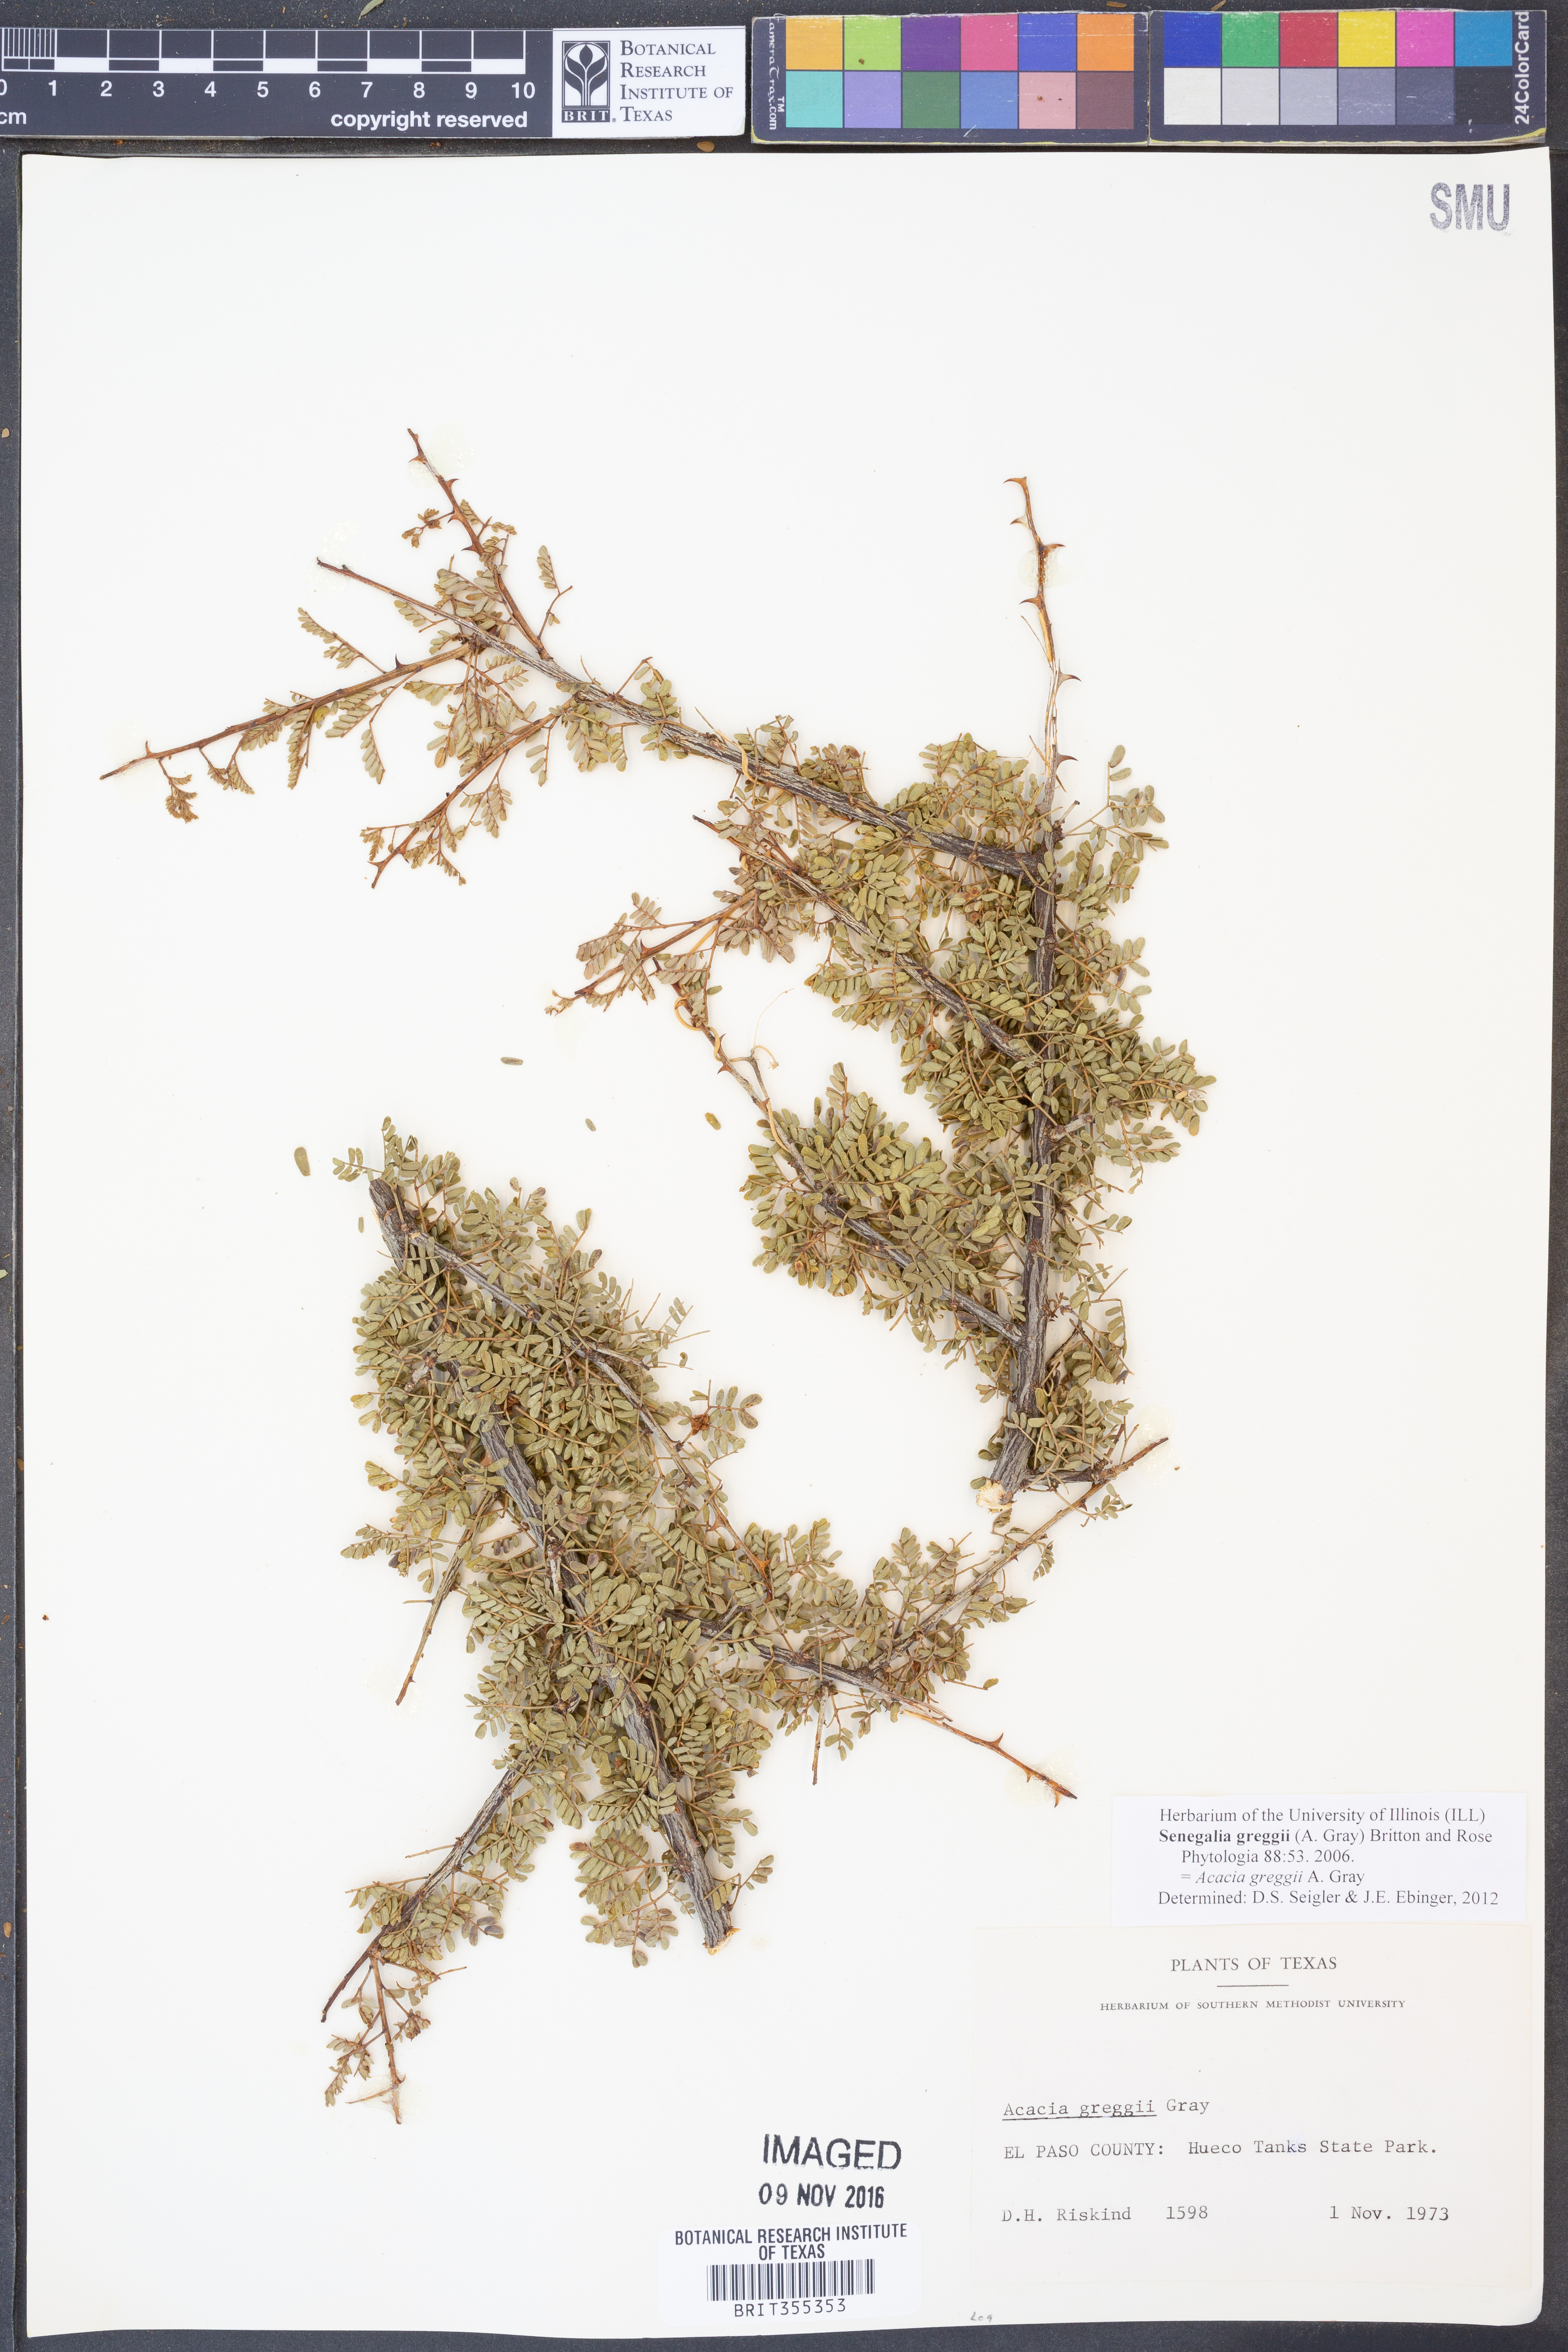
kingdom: Plantae
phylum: Tracheophyta
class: Magnoliopsida
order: Fabales
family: Fabaceae
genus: Senegalia
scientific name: Senegalia greggii
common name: Texas-mimosa
